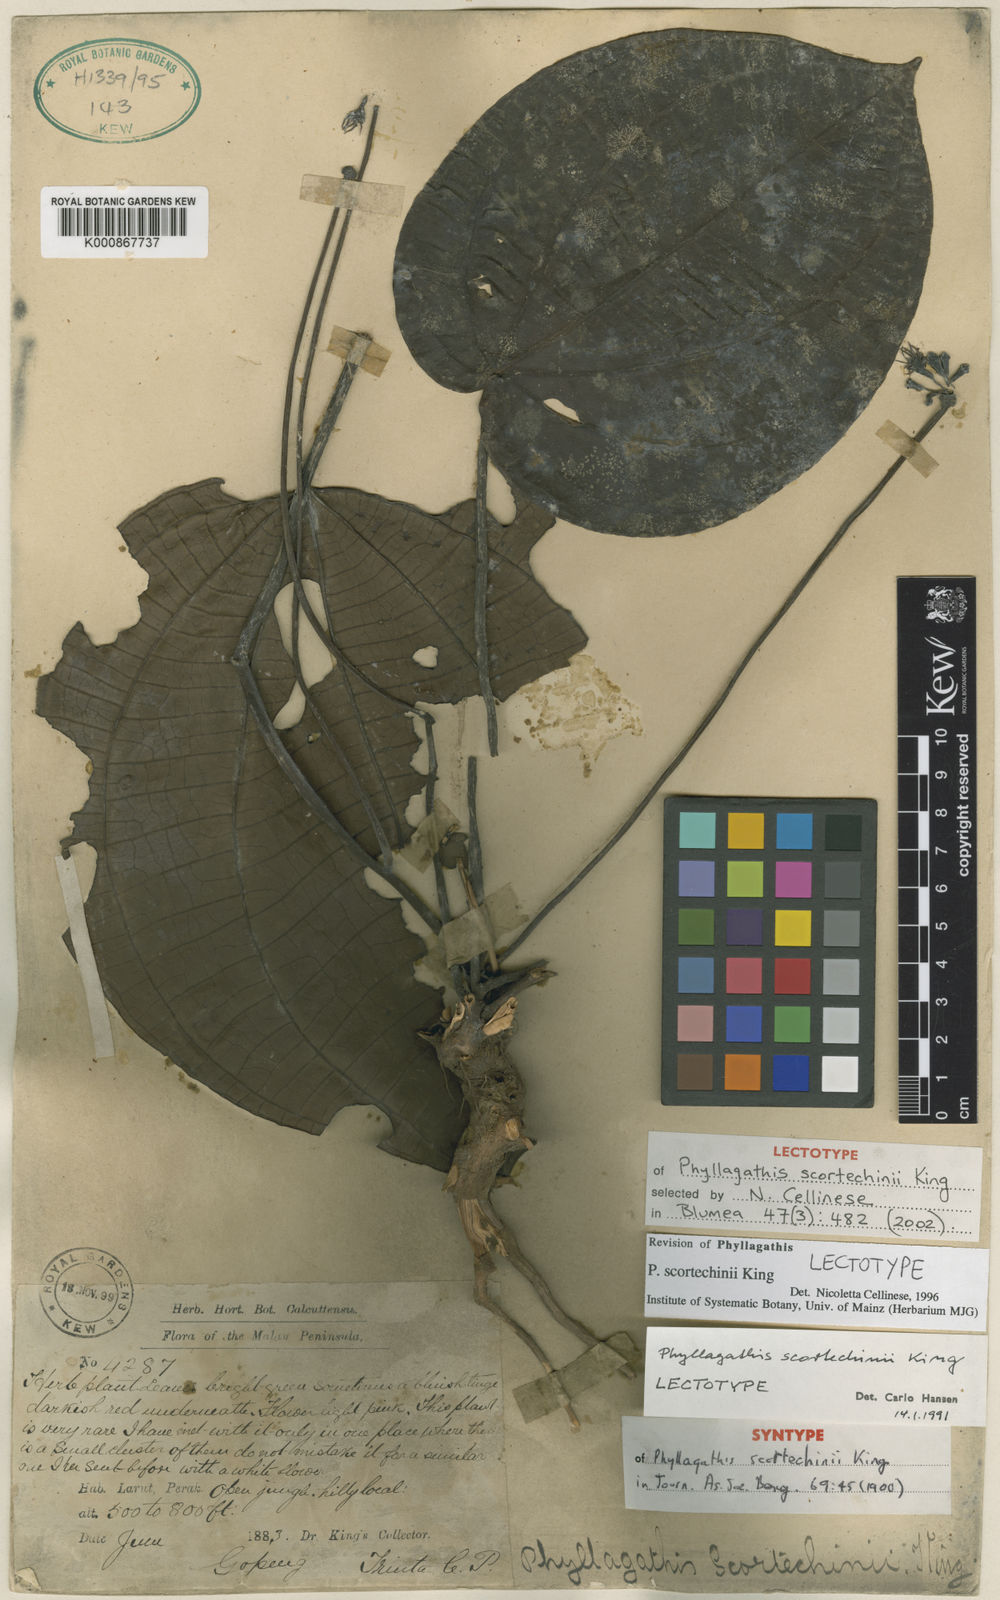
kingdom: Plantae
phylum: Tracheophyta
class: Magnoliopsida
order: Myrtales
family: Melastomataceae
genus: Phyllagathis
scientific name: Phyllagathis scortechinii
